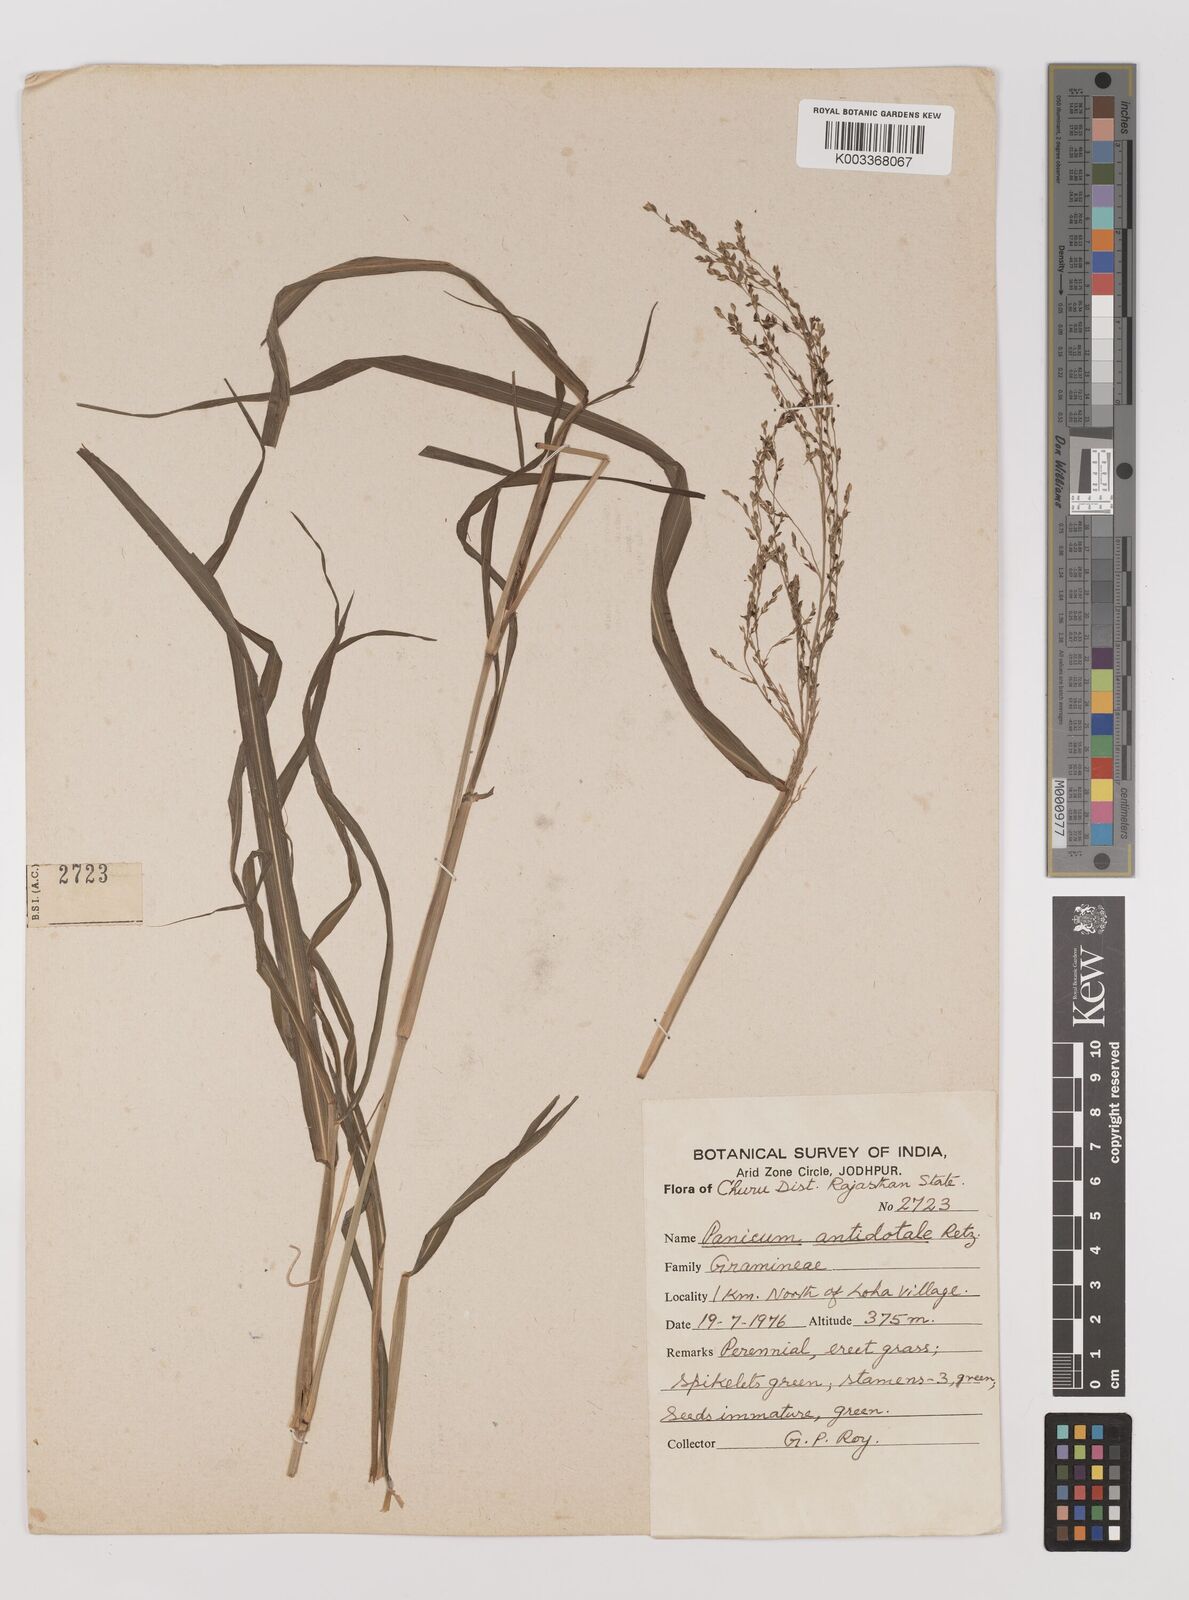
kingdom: Plantae
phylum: Tracheophyta
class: Liliopsida
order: Poales
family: Poaceae
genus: Panicum
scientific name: Panicum antidotale
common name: Blue panicum
